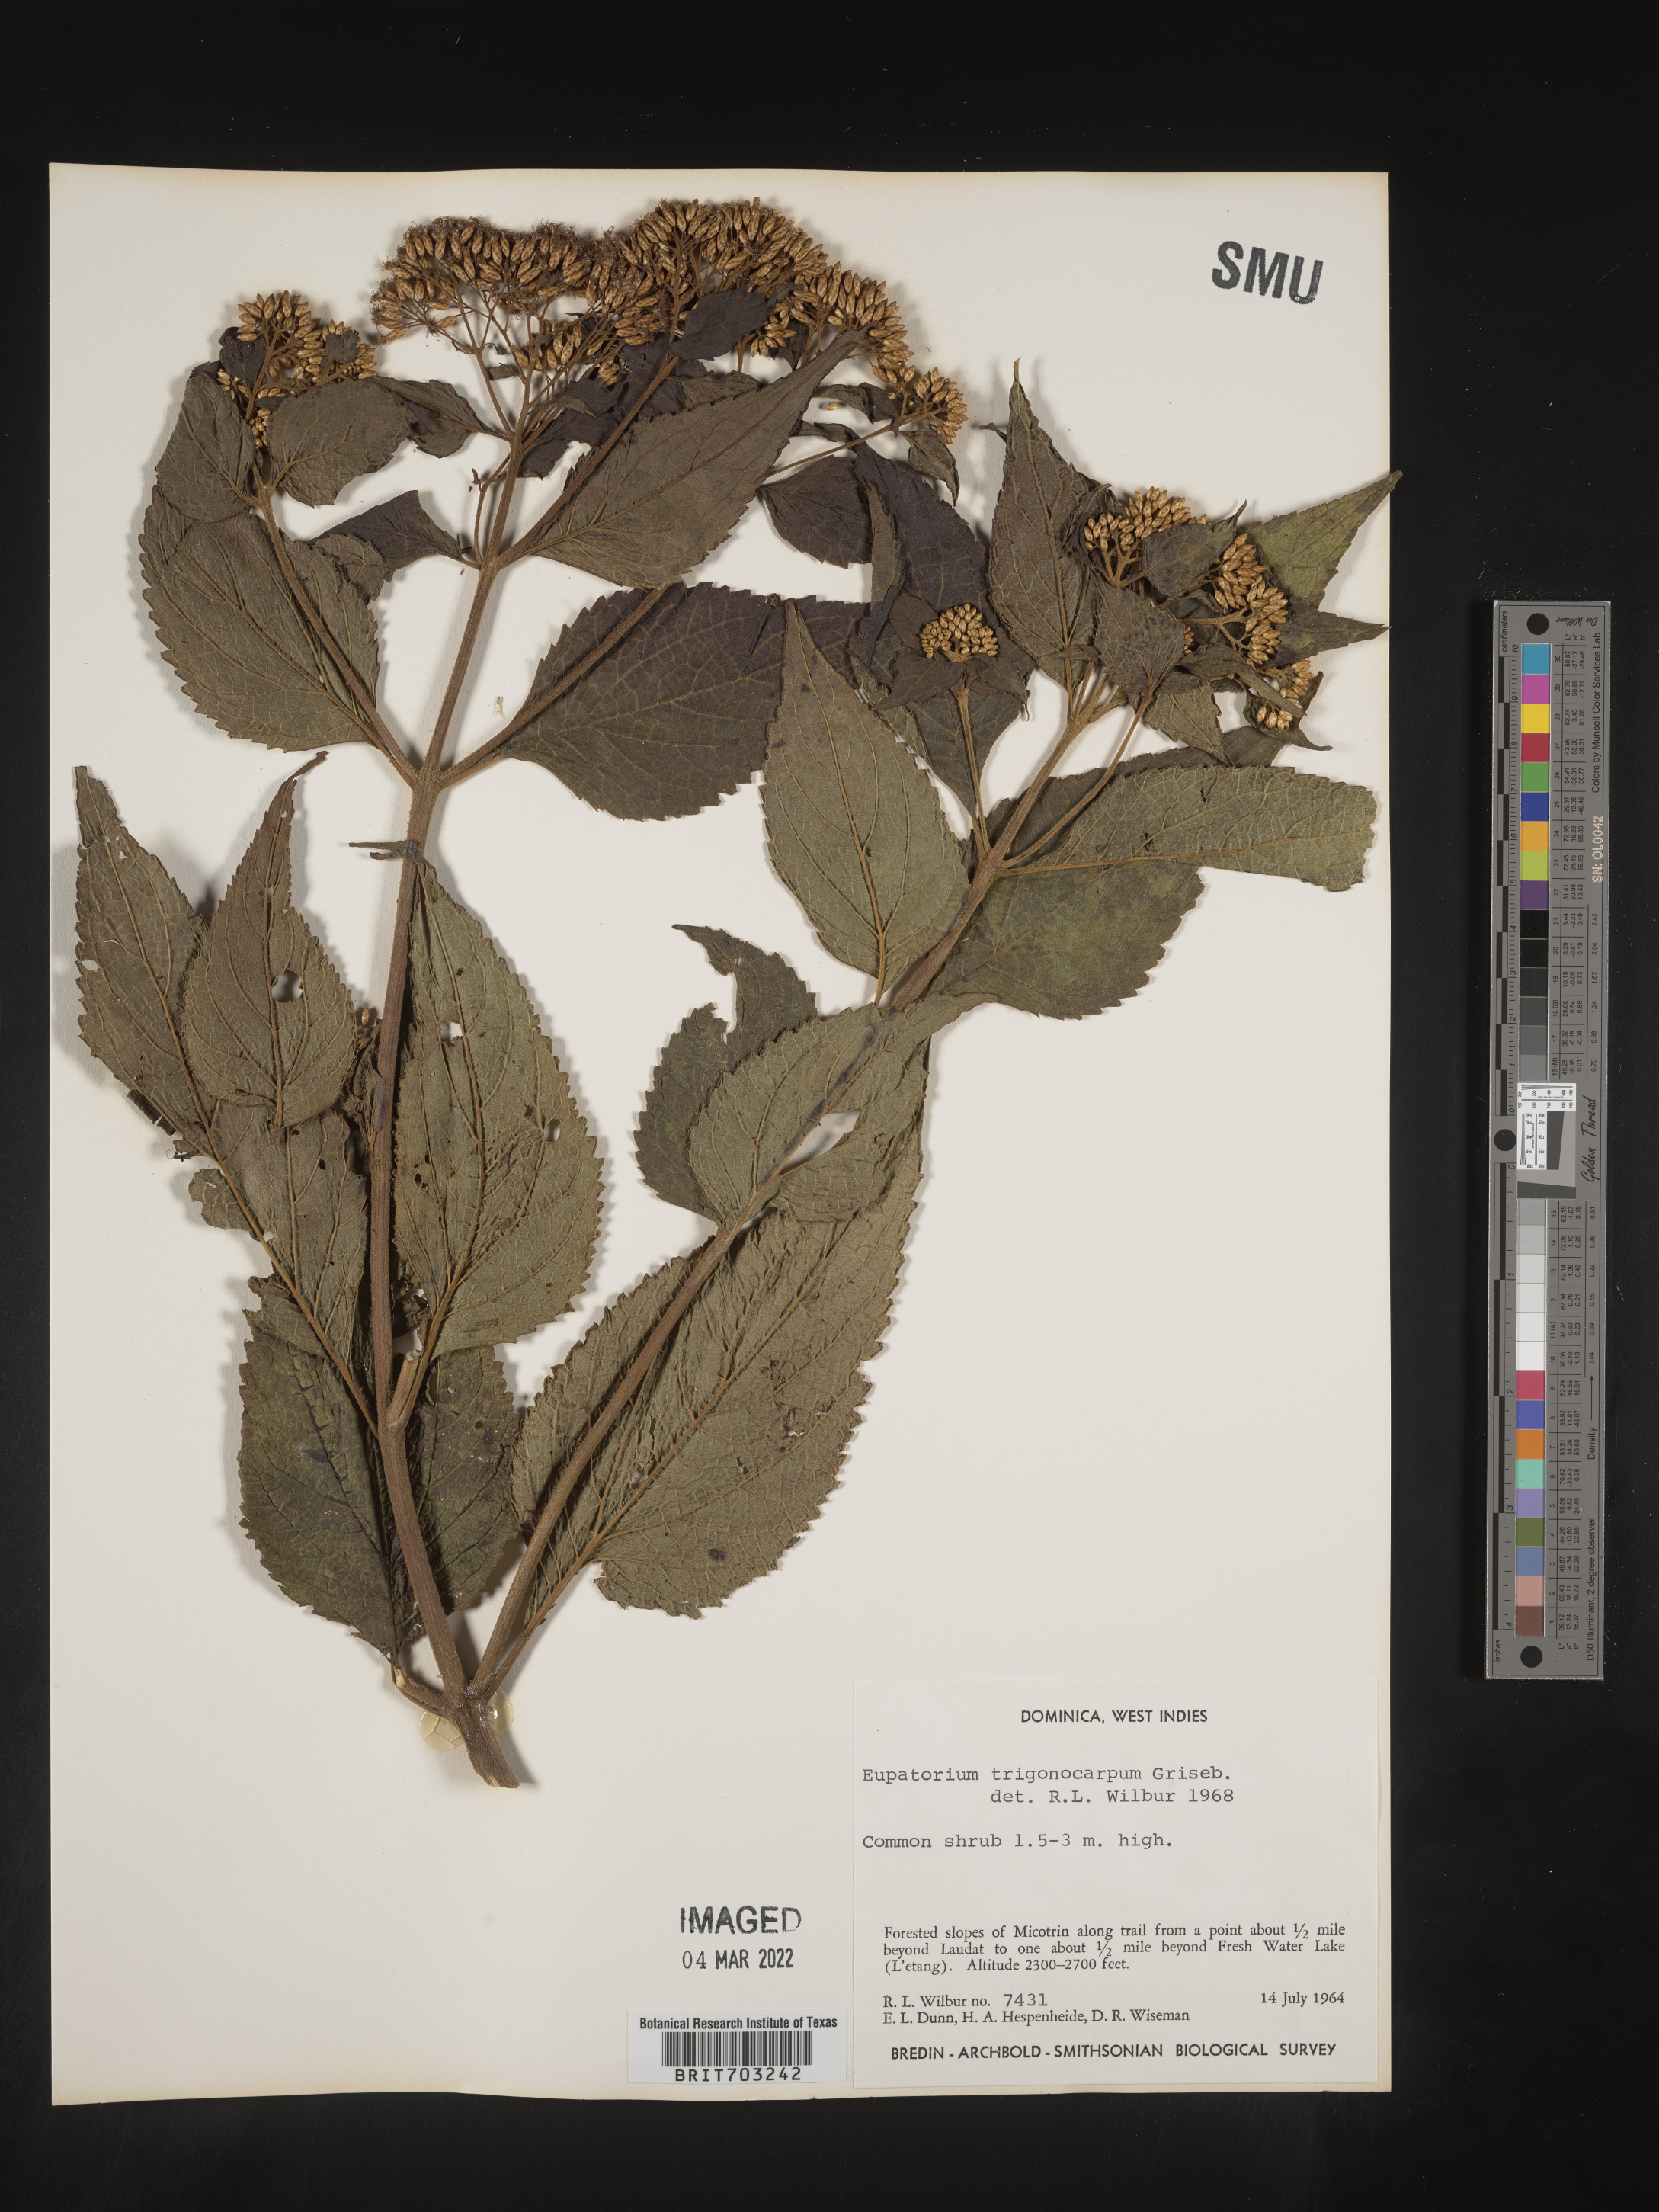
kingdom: Plantae
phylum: Tracheophyta
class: Magnoliopsida
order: Asterales
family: Asteraceae
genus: Eupatorium
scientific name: Eupatorium
